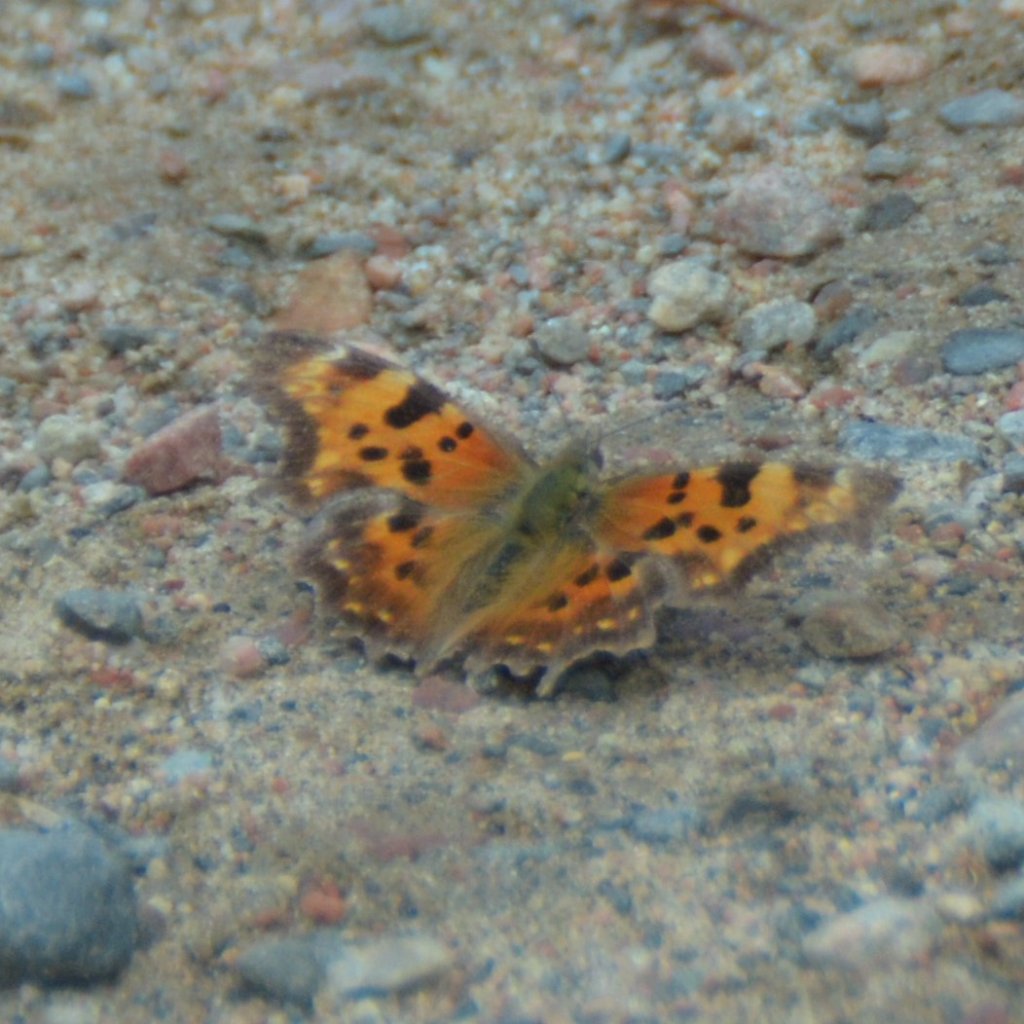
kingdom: Animalia
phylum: Arthropoda
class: Insecta
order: Lepidoptera
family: Nymphalidae
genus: Polygonia
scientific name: Polygonia faunus
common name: Green Comma
